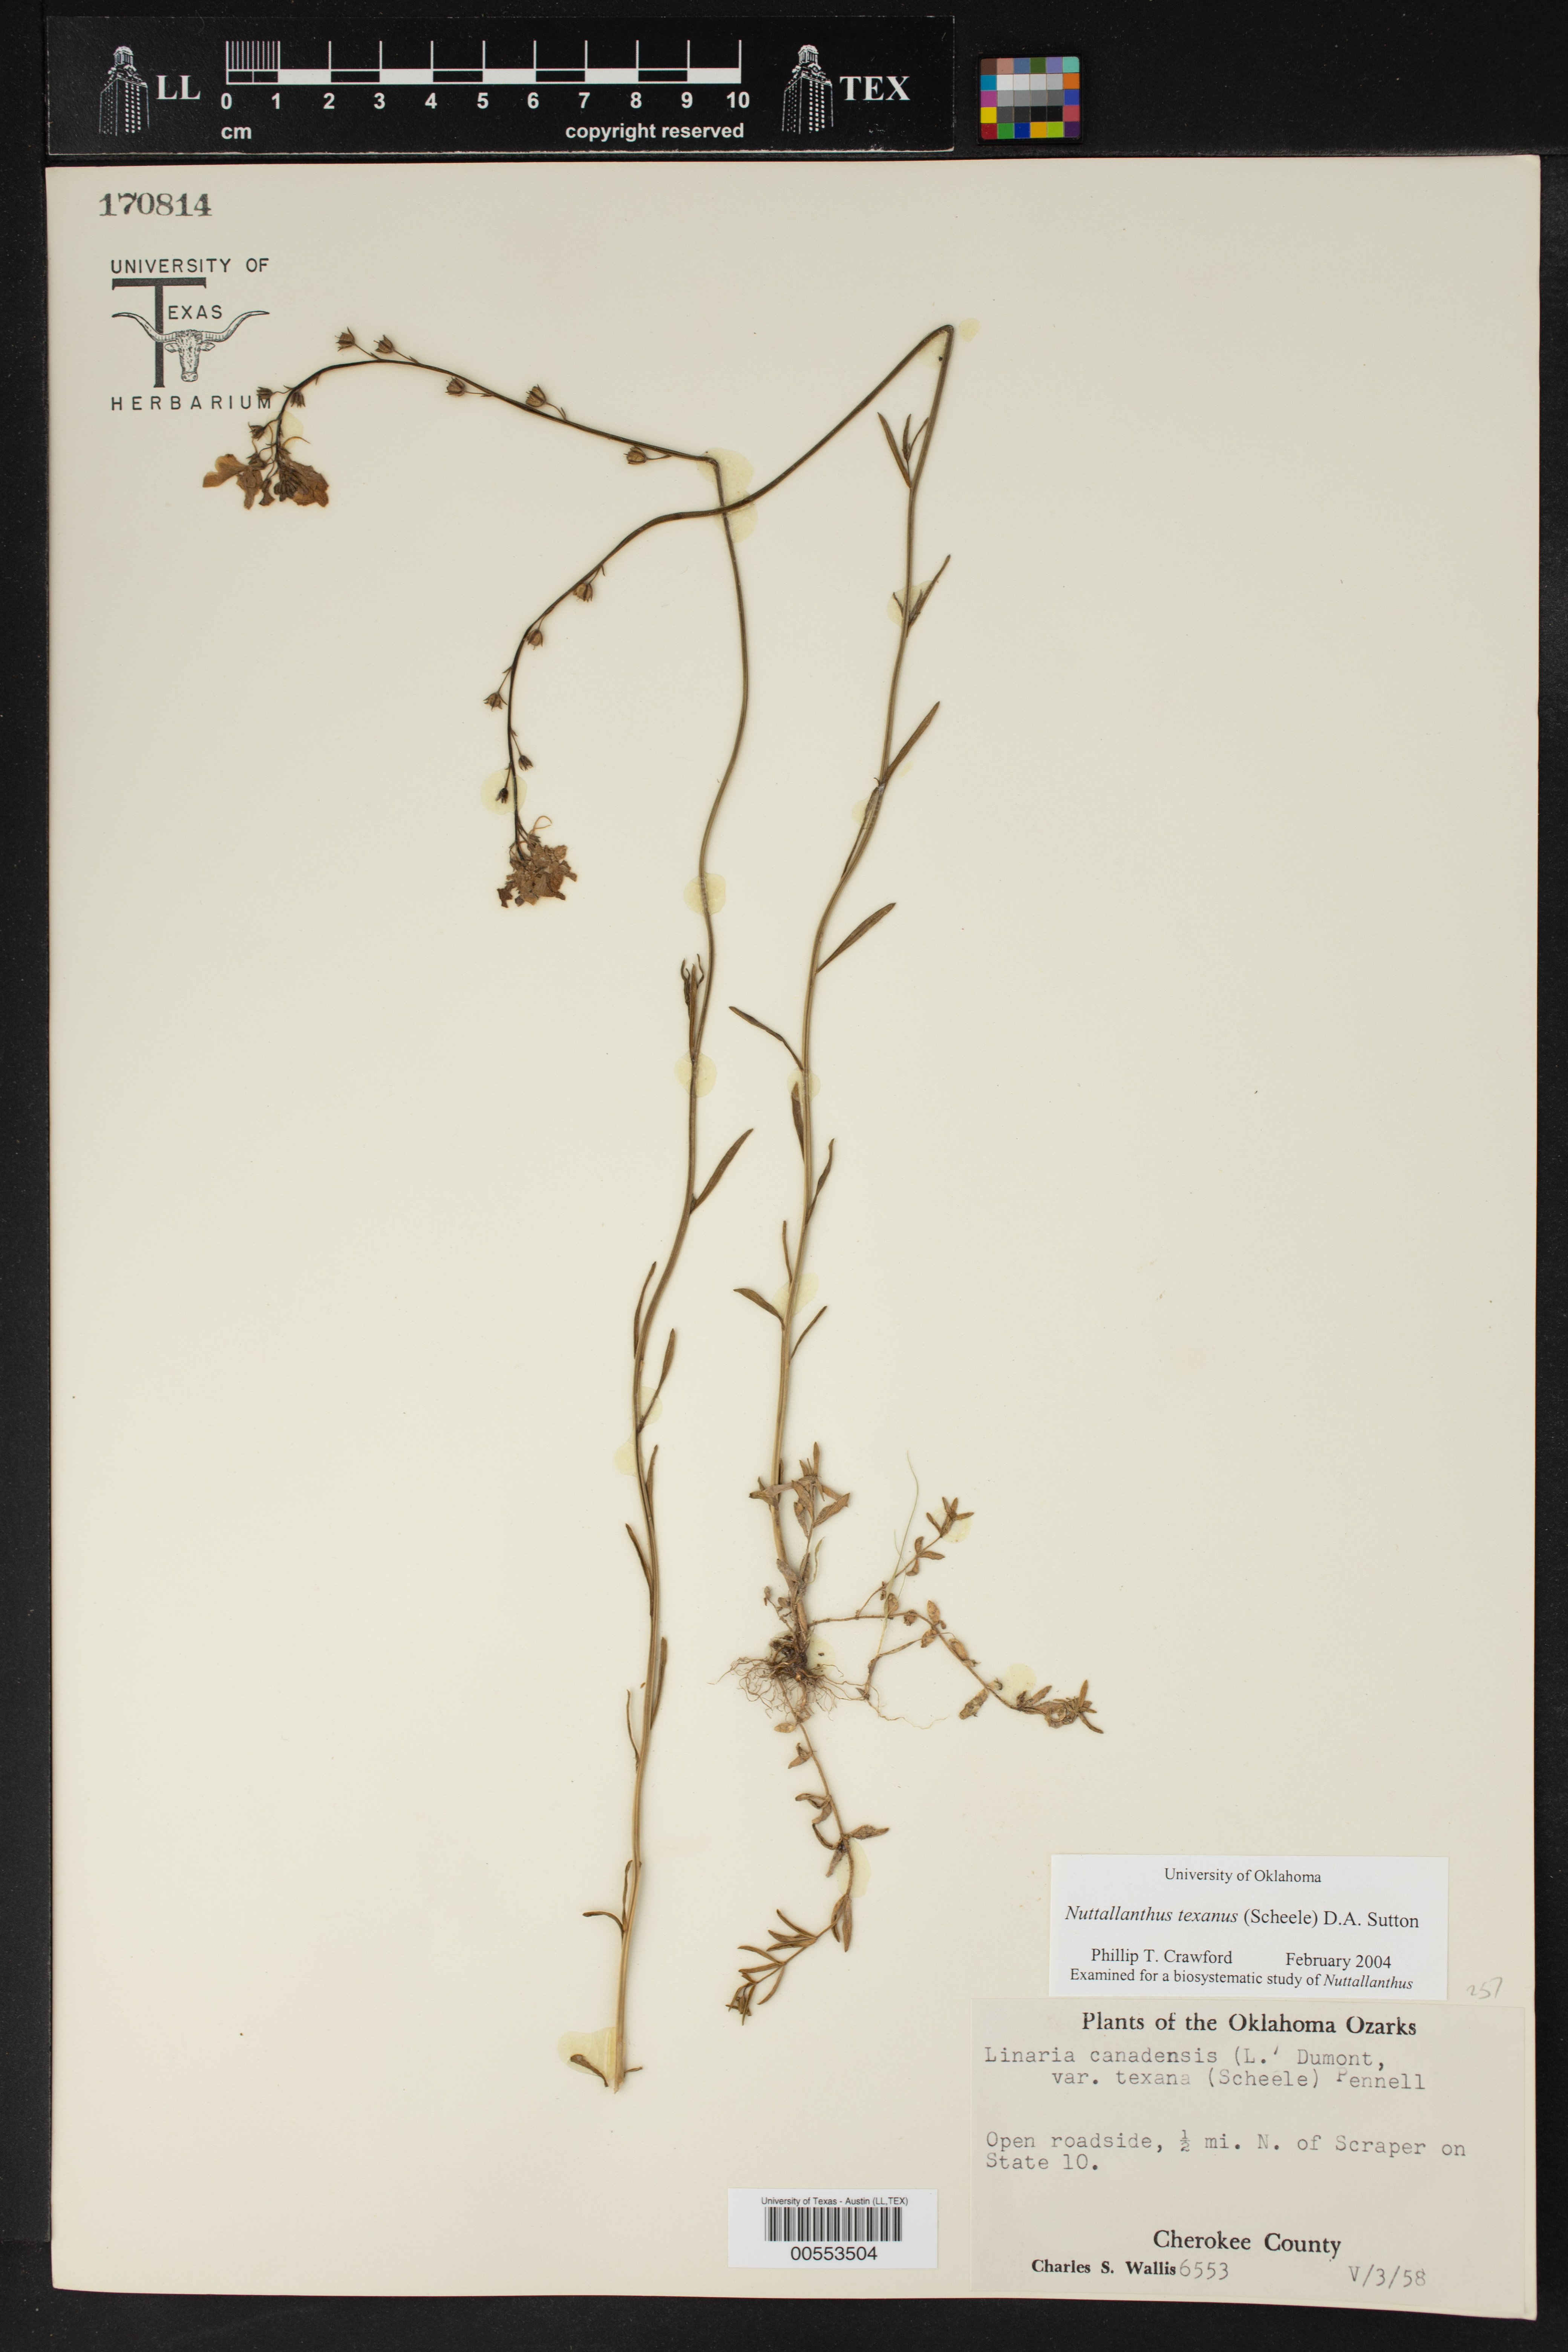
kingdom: Plantae
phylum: Tracheophyta
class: Magnoliopsida
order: Lamiales
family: Plantaginaceae
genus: Nuttallanthus
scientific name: Nuttallanthus texanus
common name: Texas toadflax
